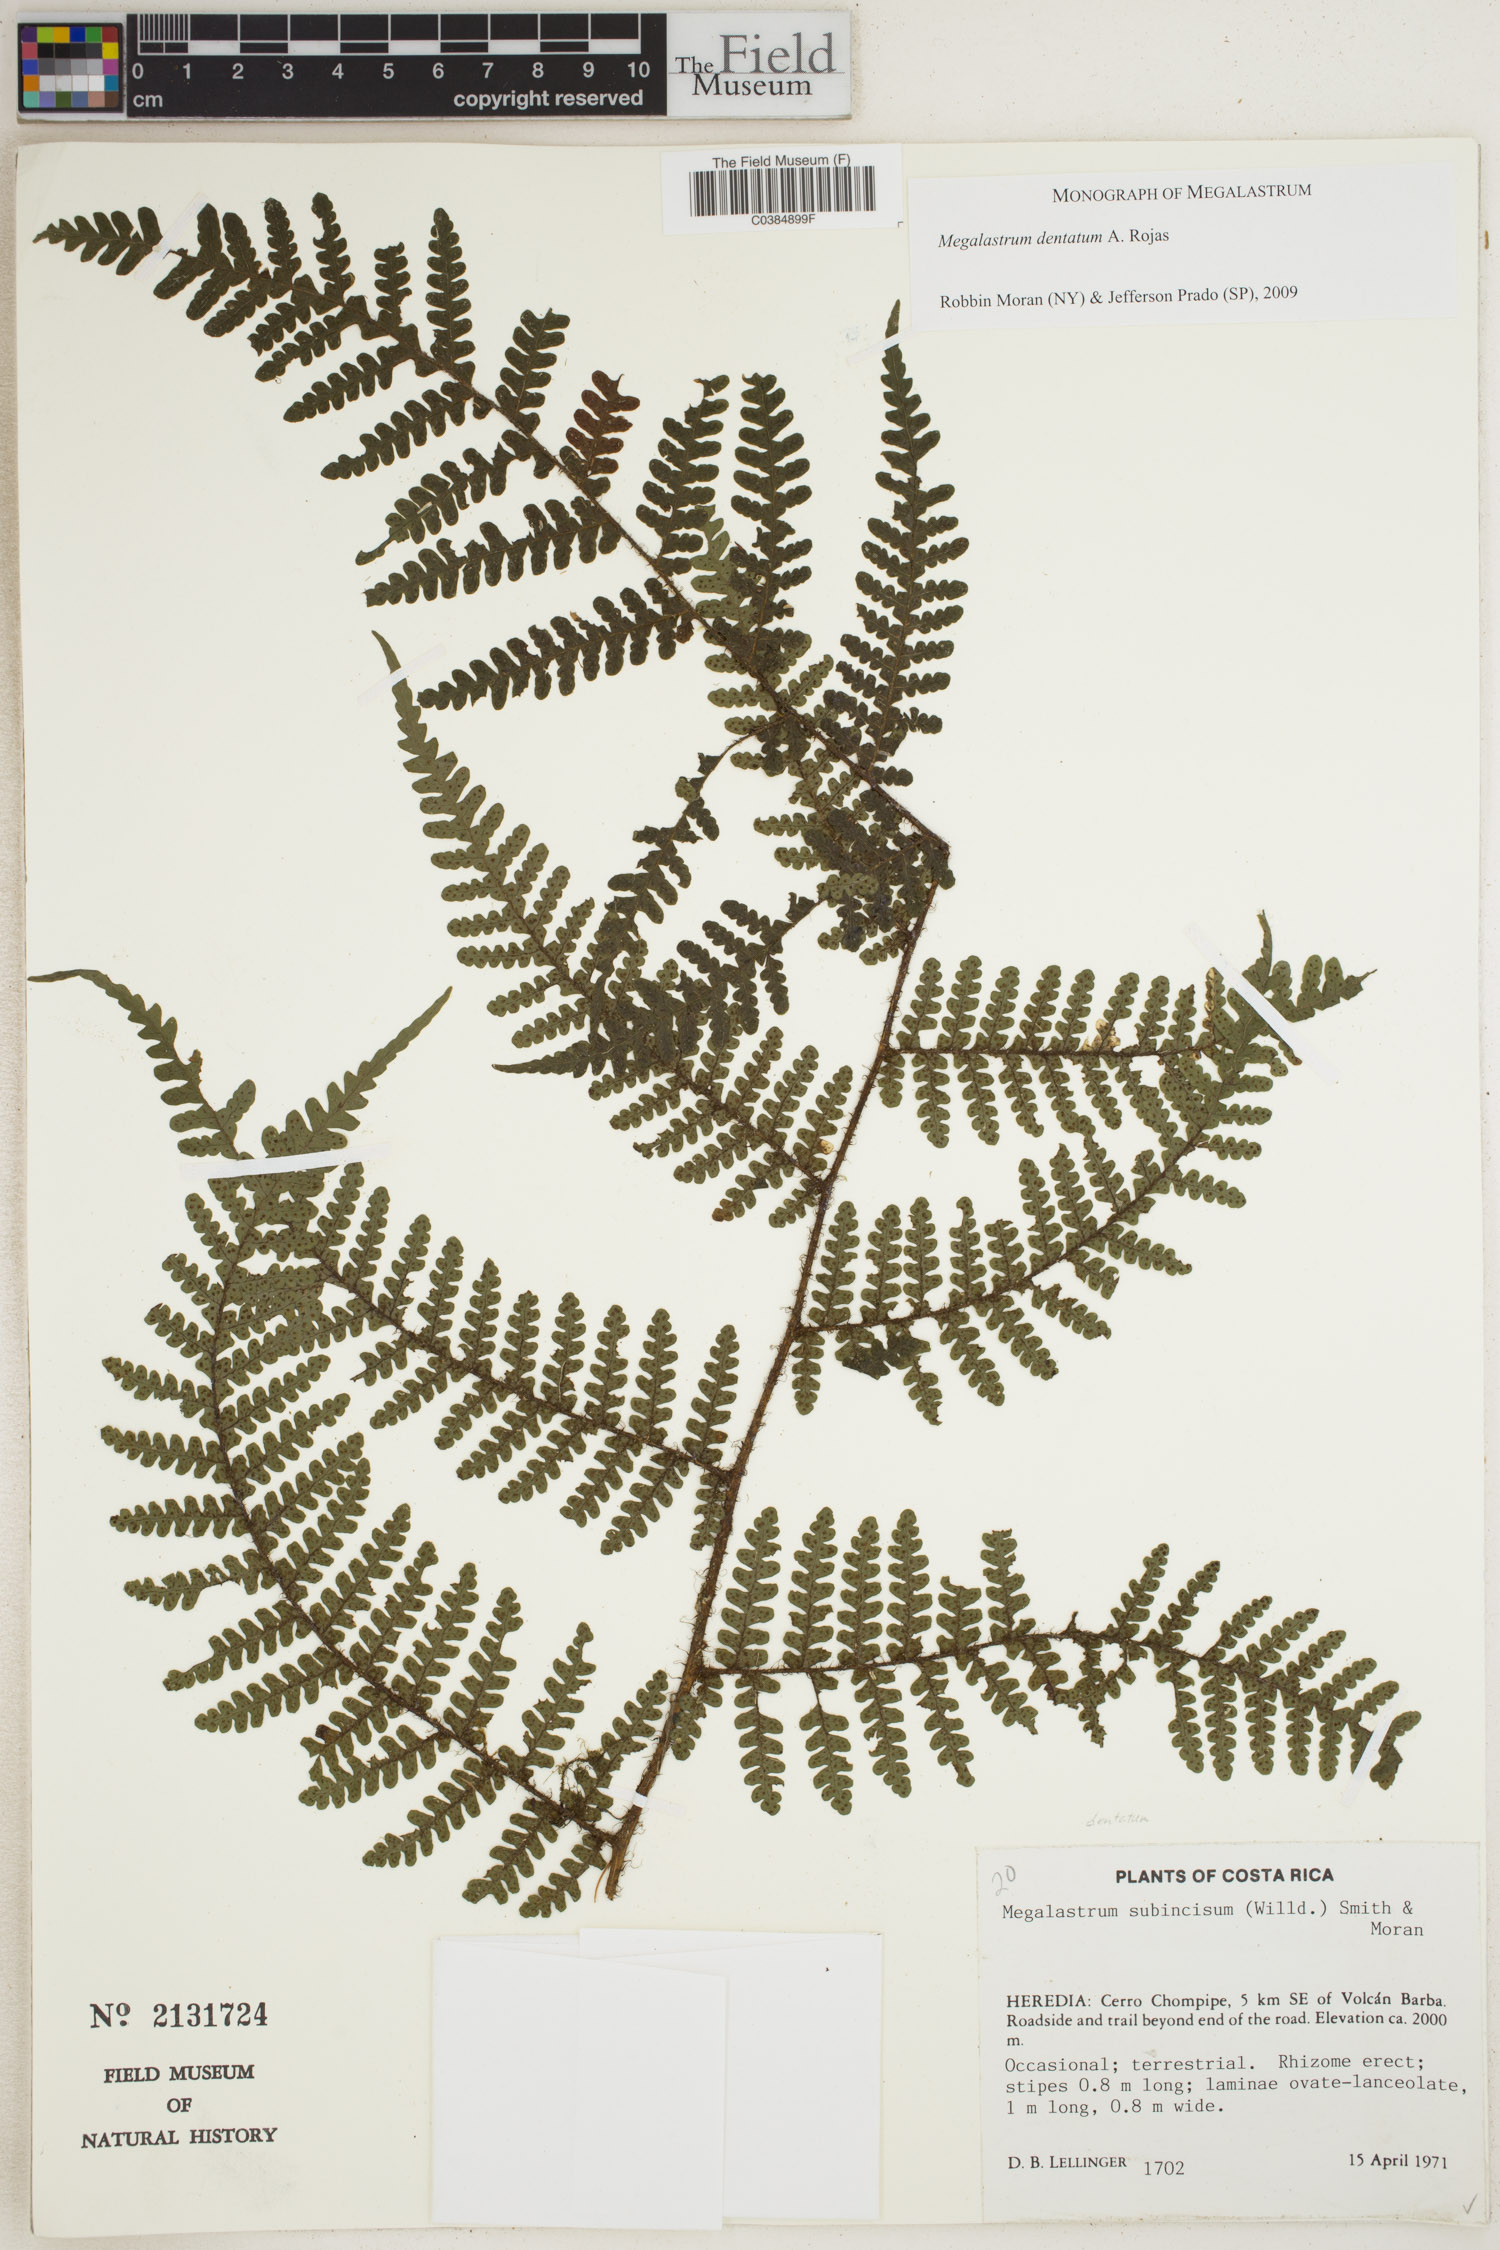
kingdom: Plantae
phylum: Tracheophyta
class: Polypodiopsida
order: Polypodiales
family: Dryopteridaceae
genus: Megalastrum
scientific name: Megalastrum dentatum
